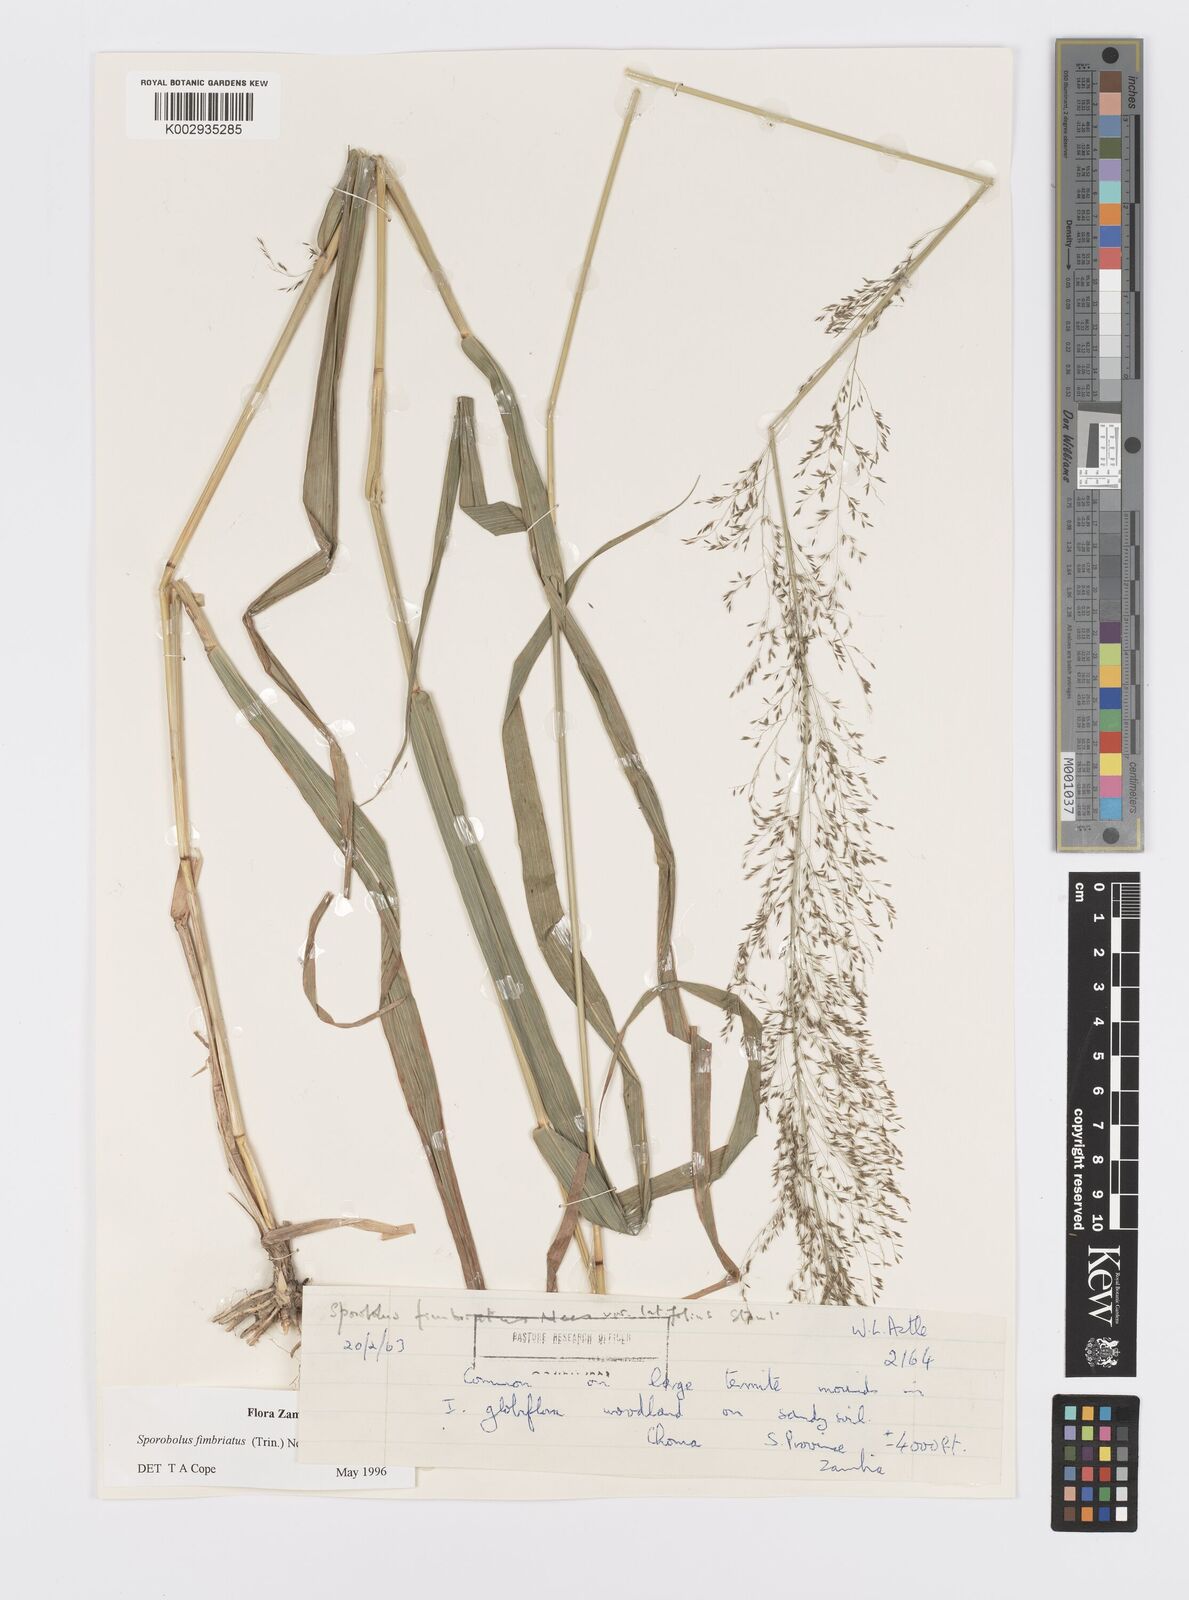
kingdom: Plantae
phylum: Tracheophyta
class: Liliopsida
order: Poales
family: Poaceae
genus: Sporobolus
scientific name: Sporobolus fimbriatus
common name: Fringed dropseed
